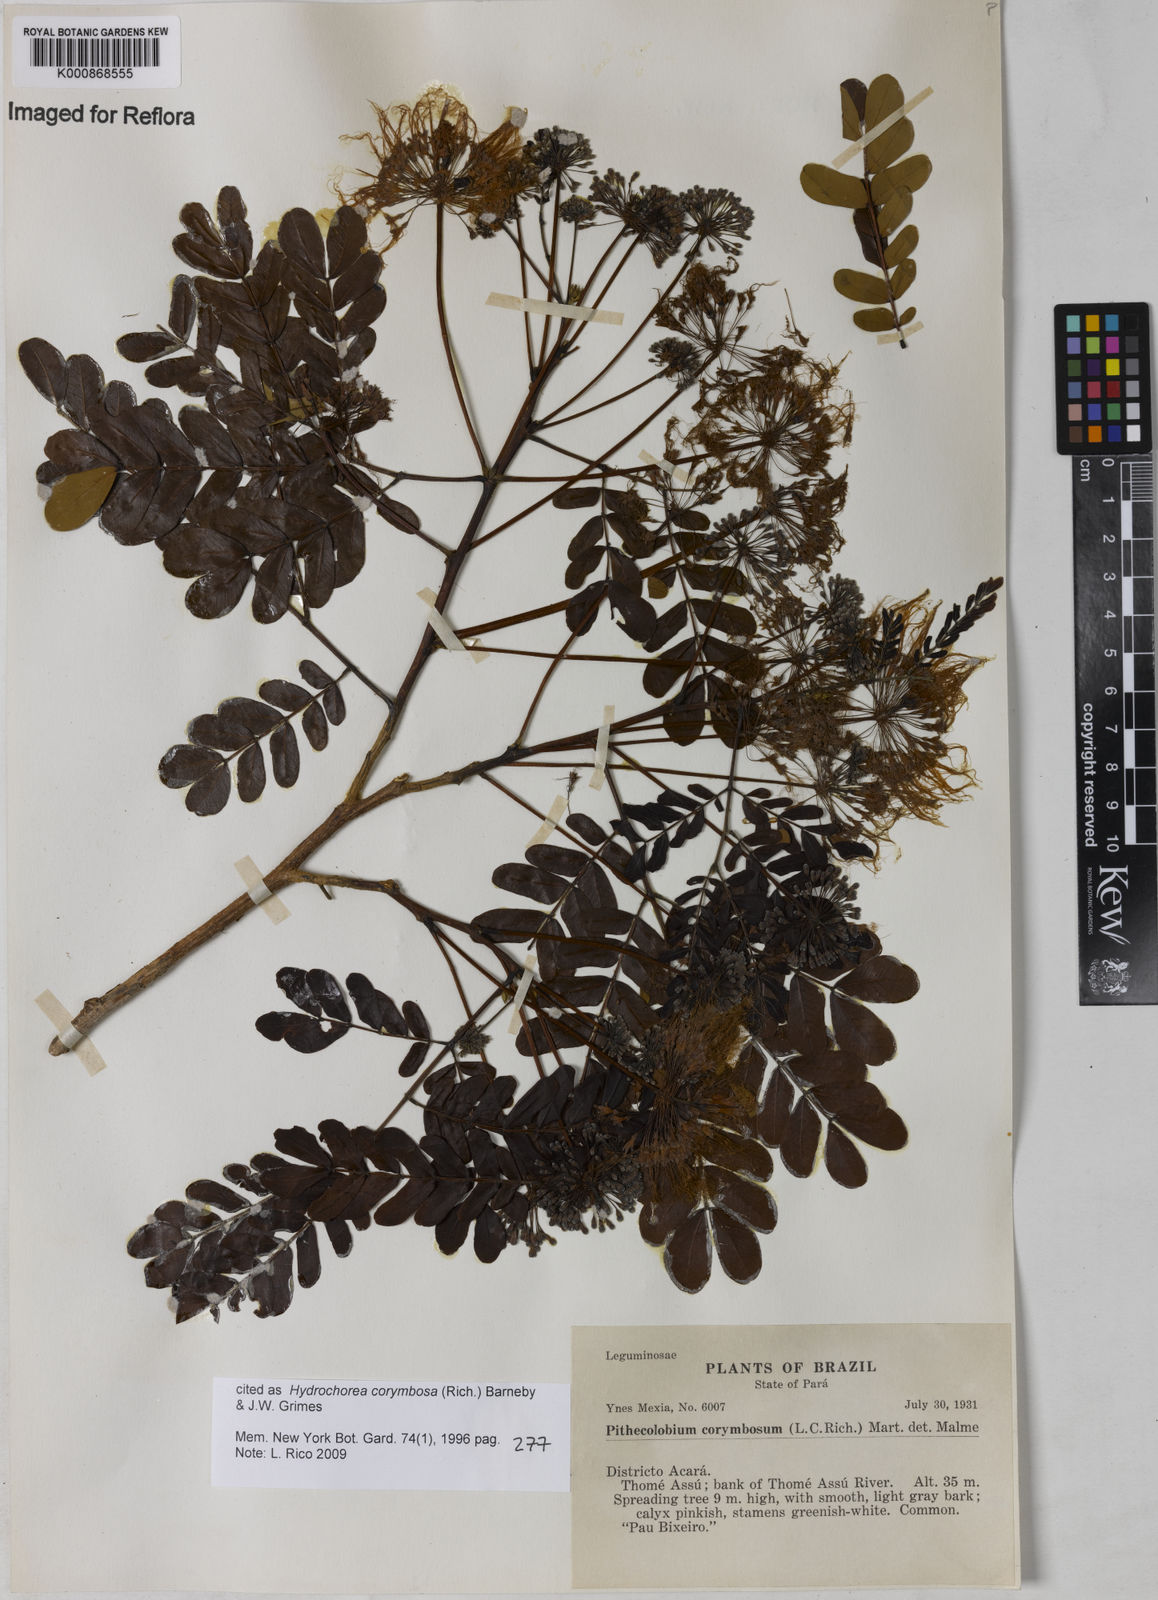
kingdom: Plantae
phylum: Tracheophyta
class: Magnoliopsida
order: Fabales
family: Fabaceae
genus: Hydrochorea
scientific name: Hydrochorea corymbosa
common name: Swamp manariballi
